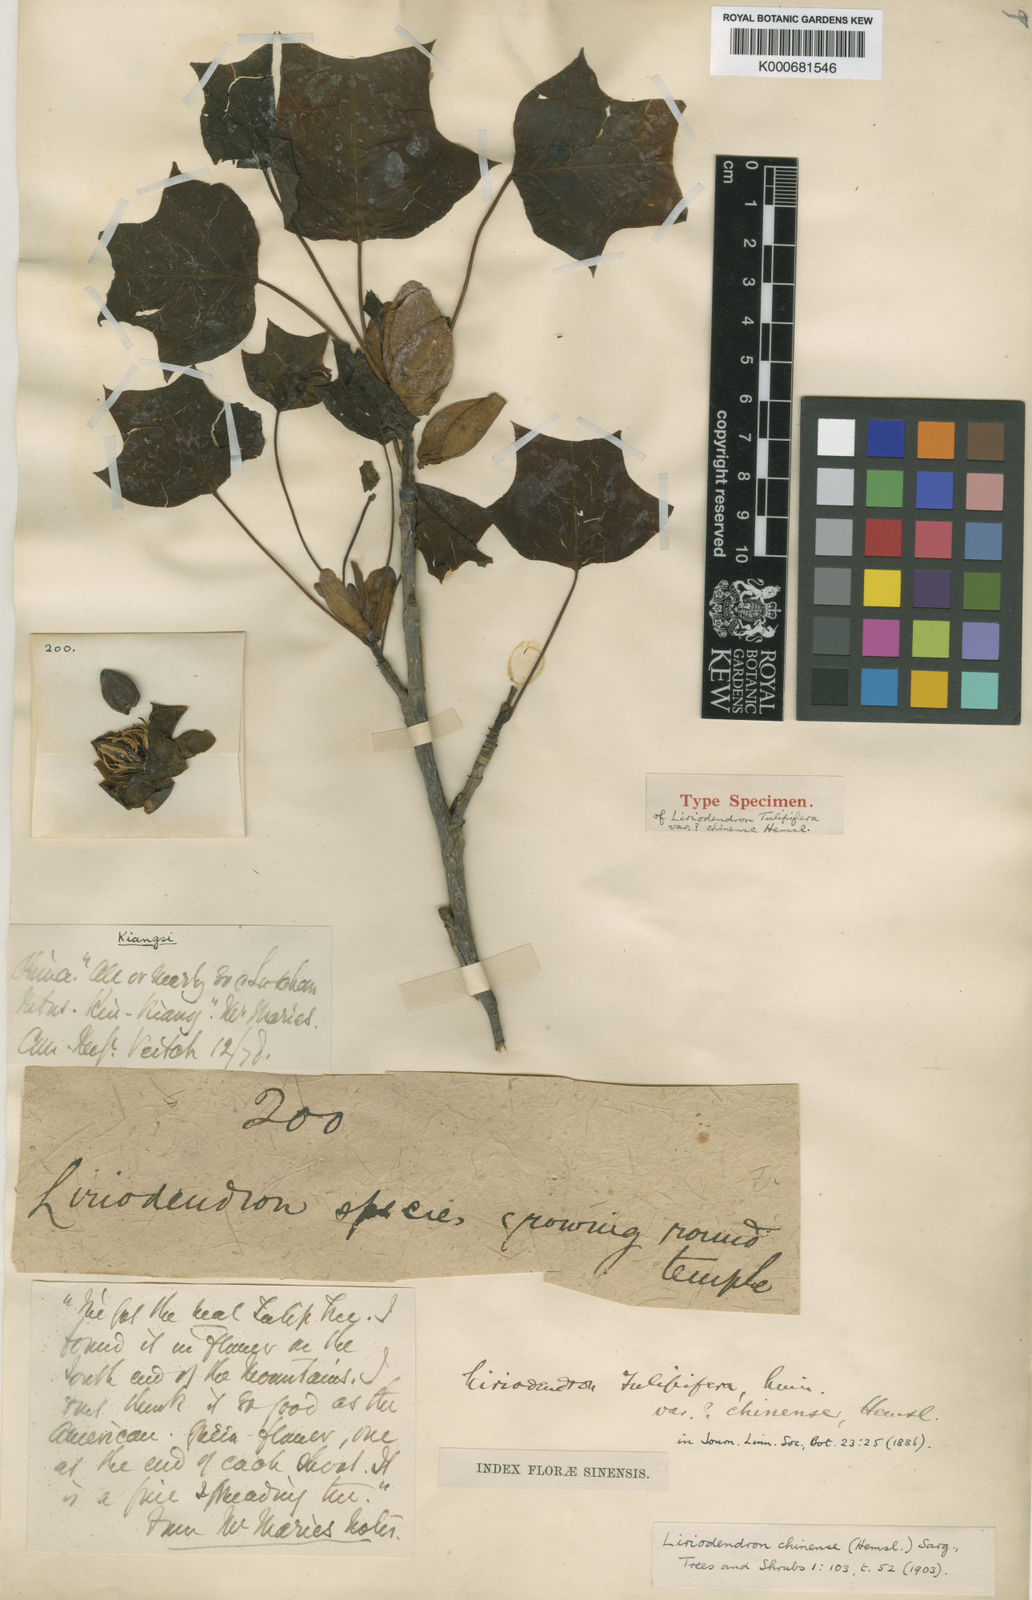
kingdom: Plantae
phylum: Tracheophyta
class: Magnoliopsida
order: Magnoliales
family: Magnoliaceae
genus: Liriodendron
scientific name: Liriodendron chinense
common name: Chinese tuliptree
